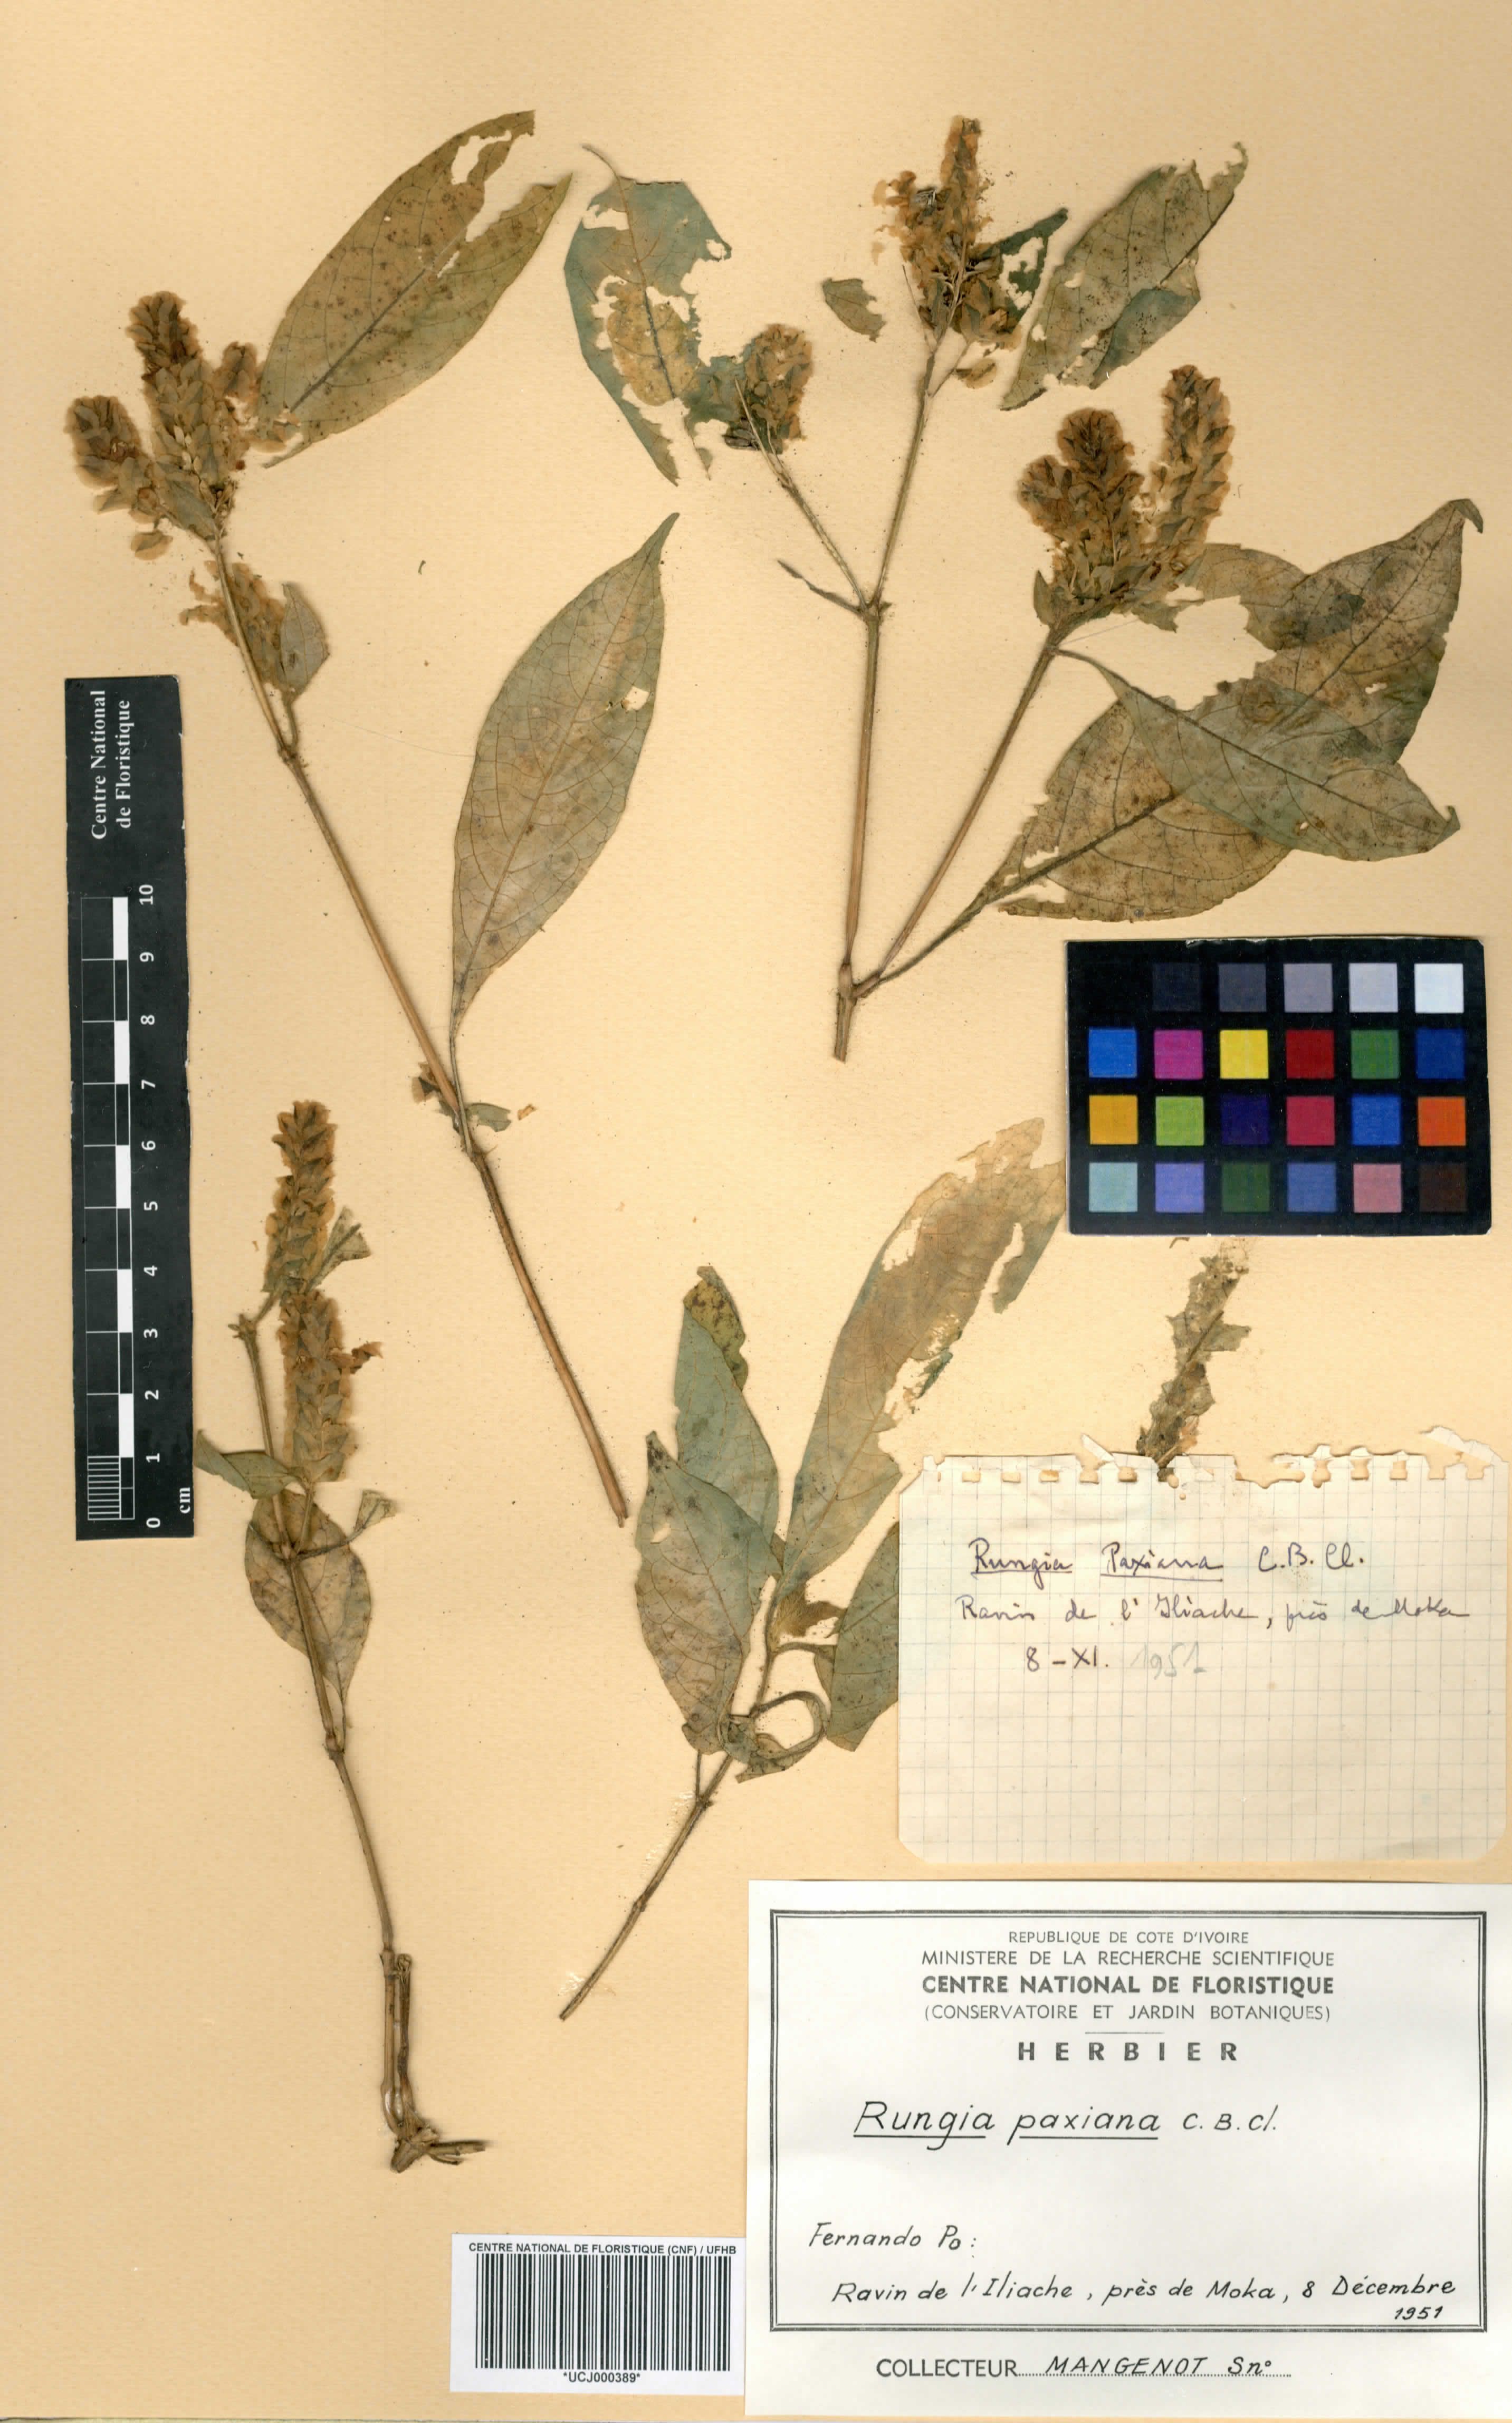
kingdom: Plantae
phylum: Tracheophyta
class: Magnoliopsida
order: Lamiales
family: Acanthaceae
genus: Rungia
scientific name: Rungia paxiana
